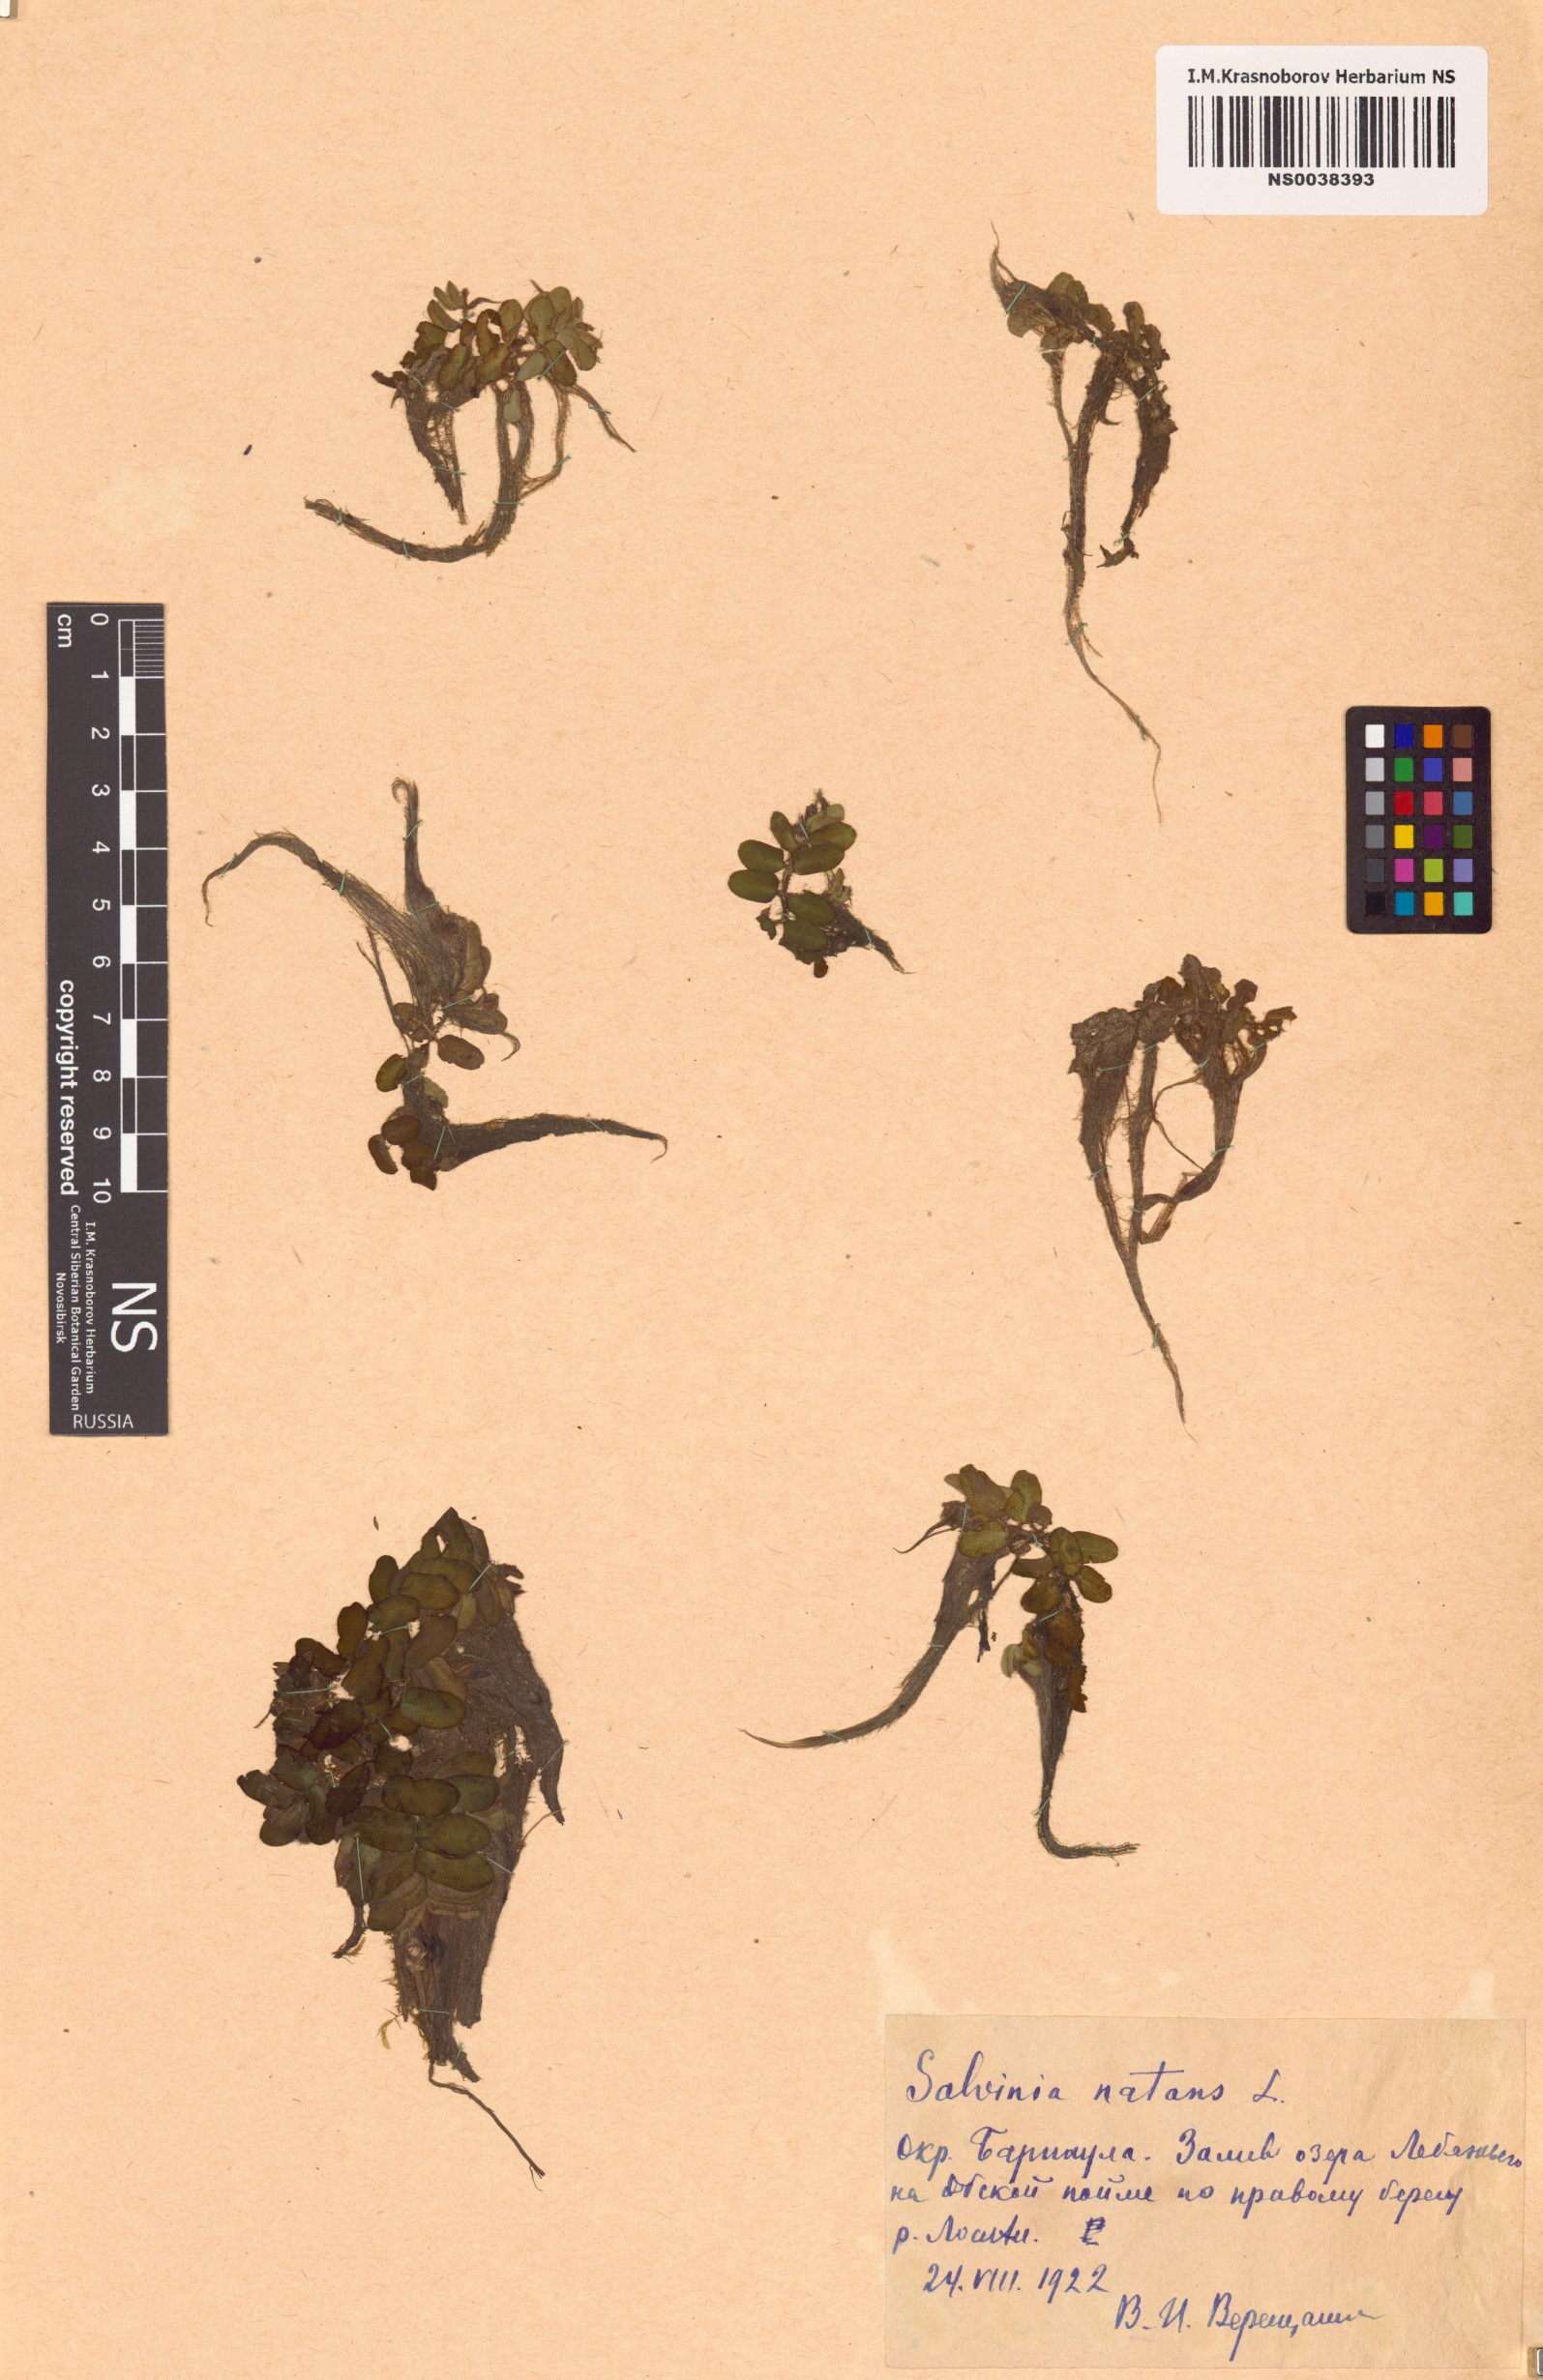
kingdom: Plantae
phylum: Tracheophyta
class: Polypodiopsida
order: Salviniales
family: Salviniaceae
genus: Salvinia
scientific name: Salvinia natans
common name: Floating fern
